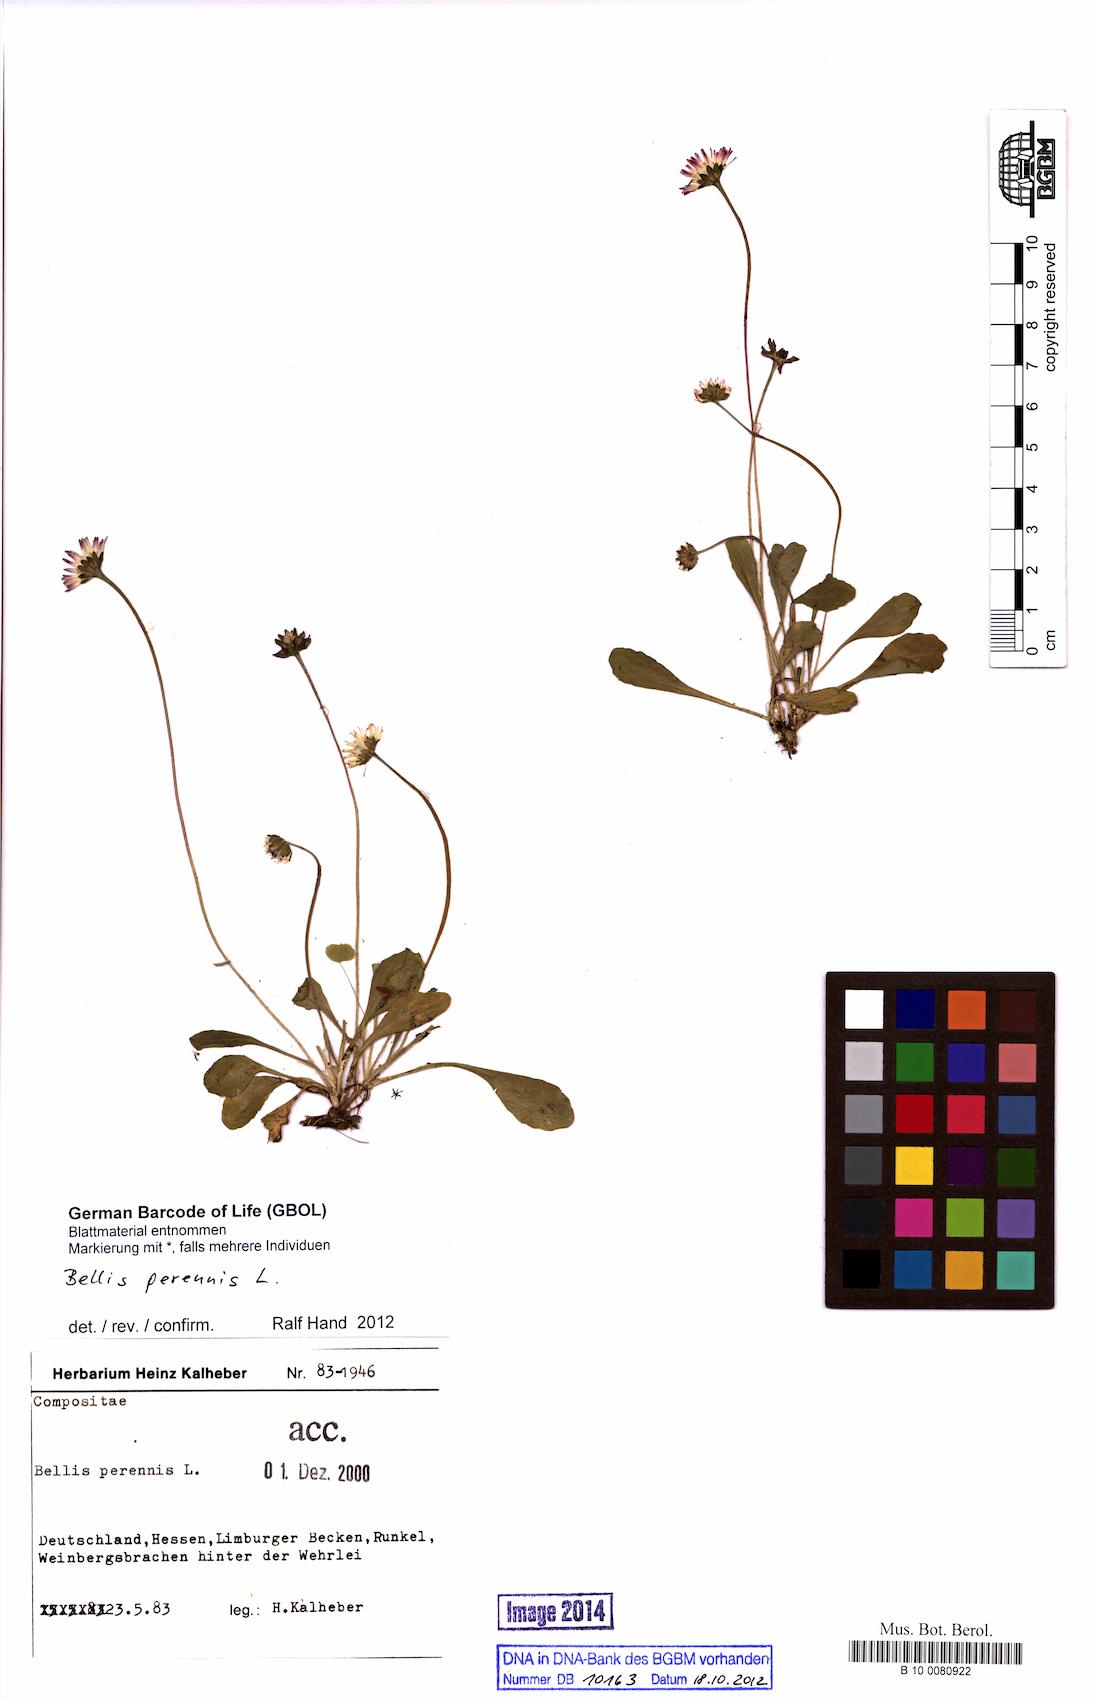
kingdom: Plantae
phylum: Tracheophyta
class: Magnoliopsida
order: Asterales
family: Asteraceae
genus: Bellis
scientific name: Bellis perennis
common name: Lawndaisy
